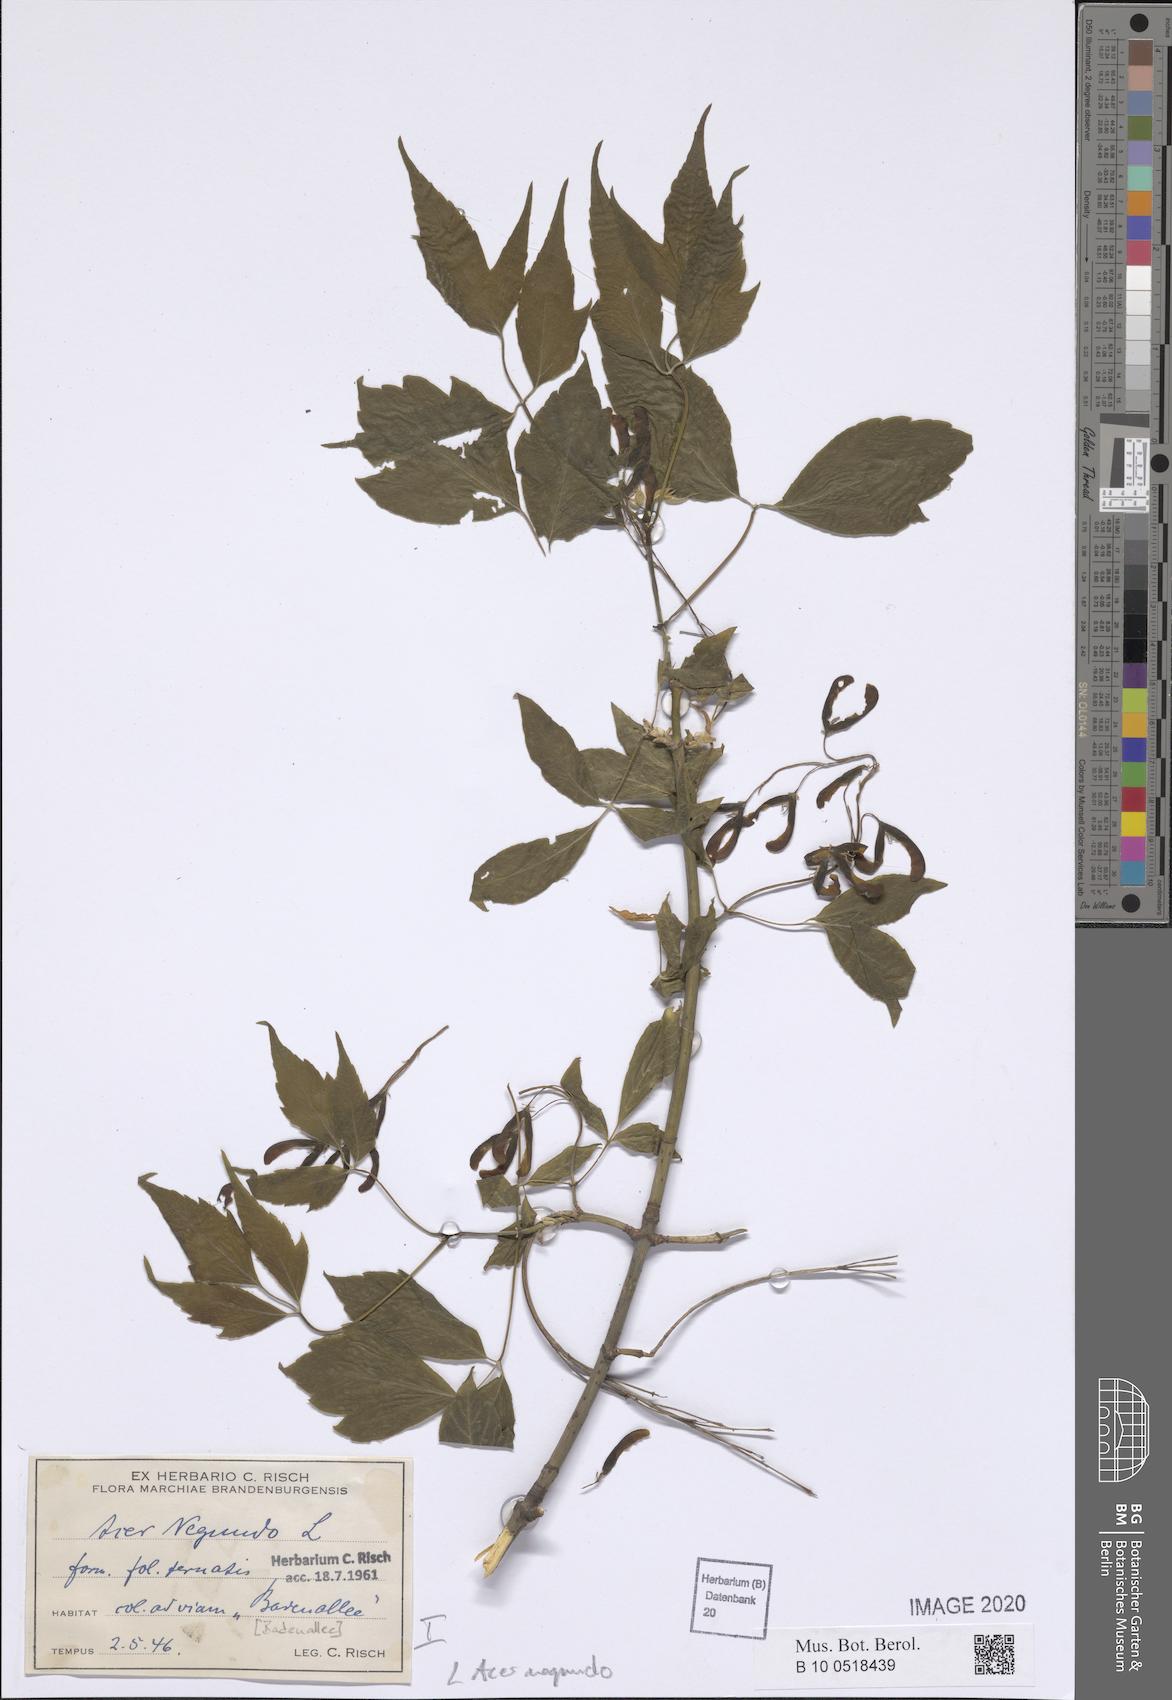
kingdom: Plantae
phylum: Tracheophyta
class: Magnoliopsida
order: Sapindales
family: Sapindaceae
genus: Acer
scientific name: Acer negundo
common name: Ashleaf maple
